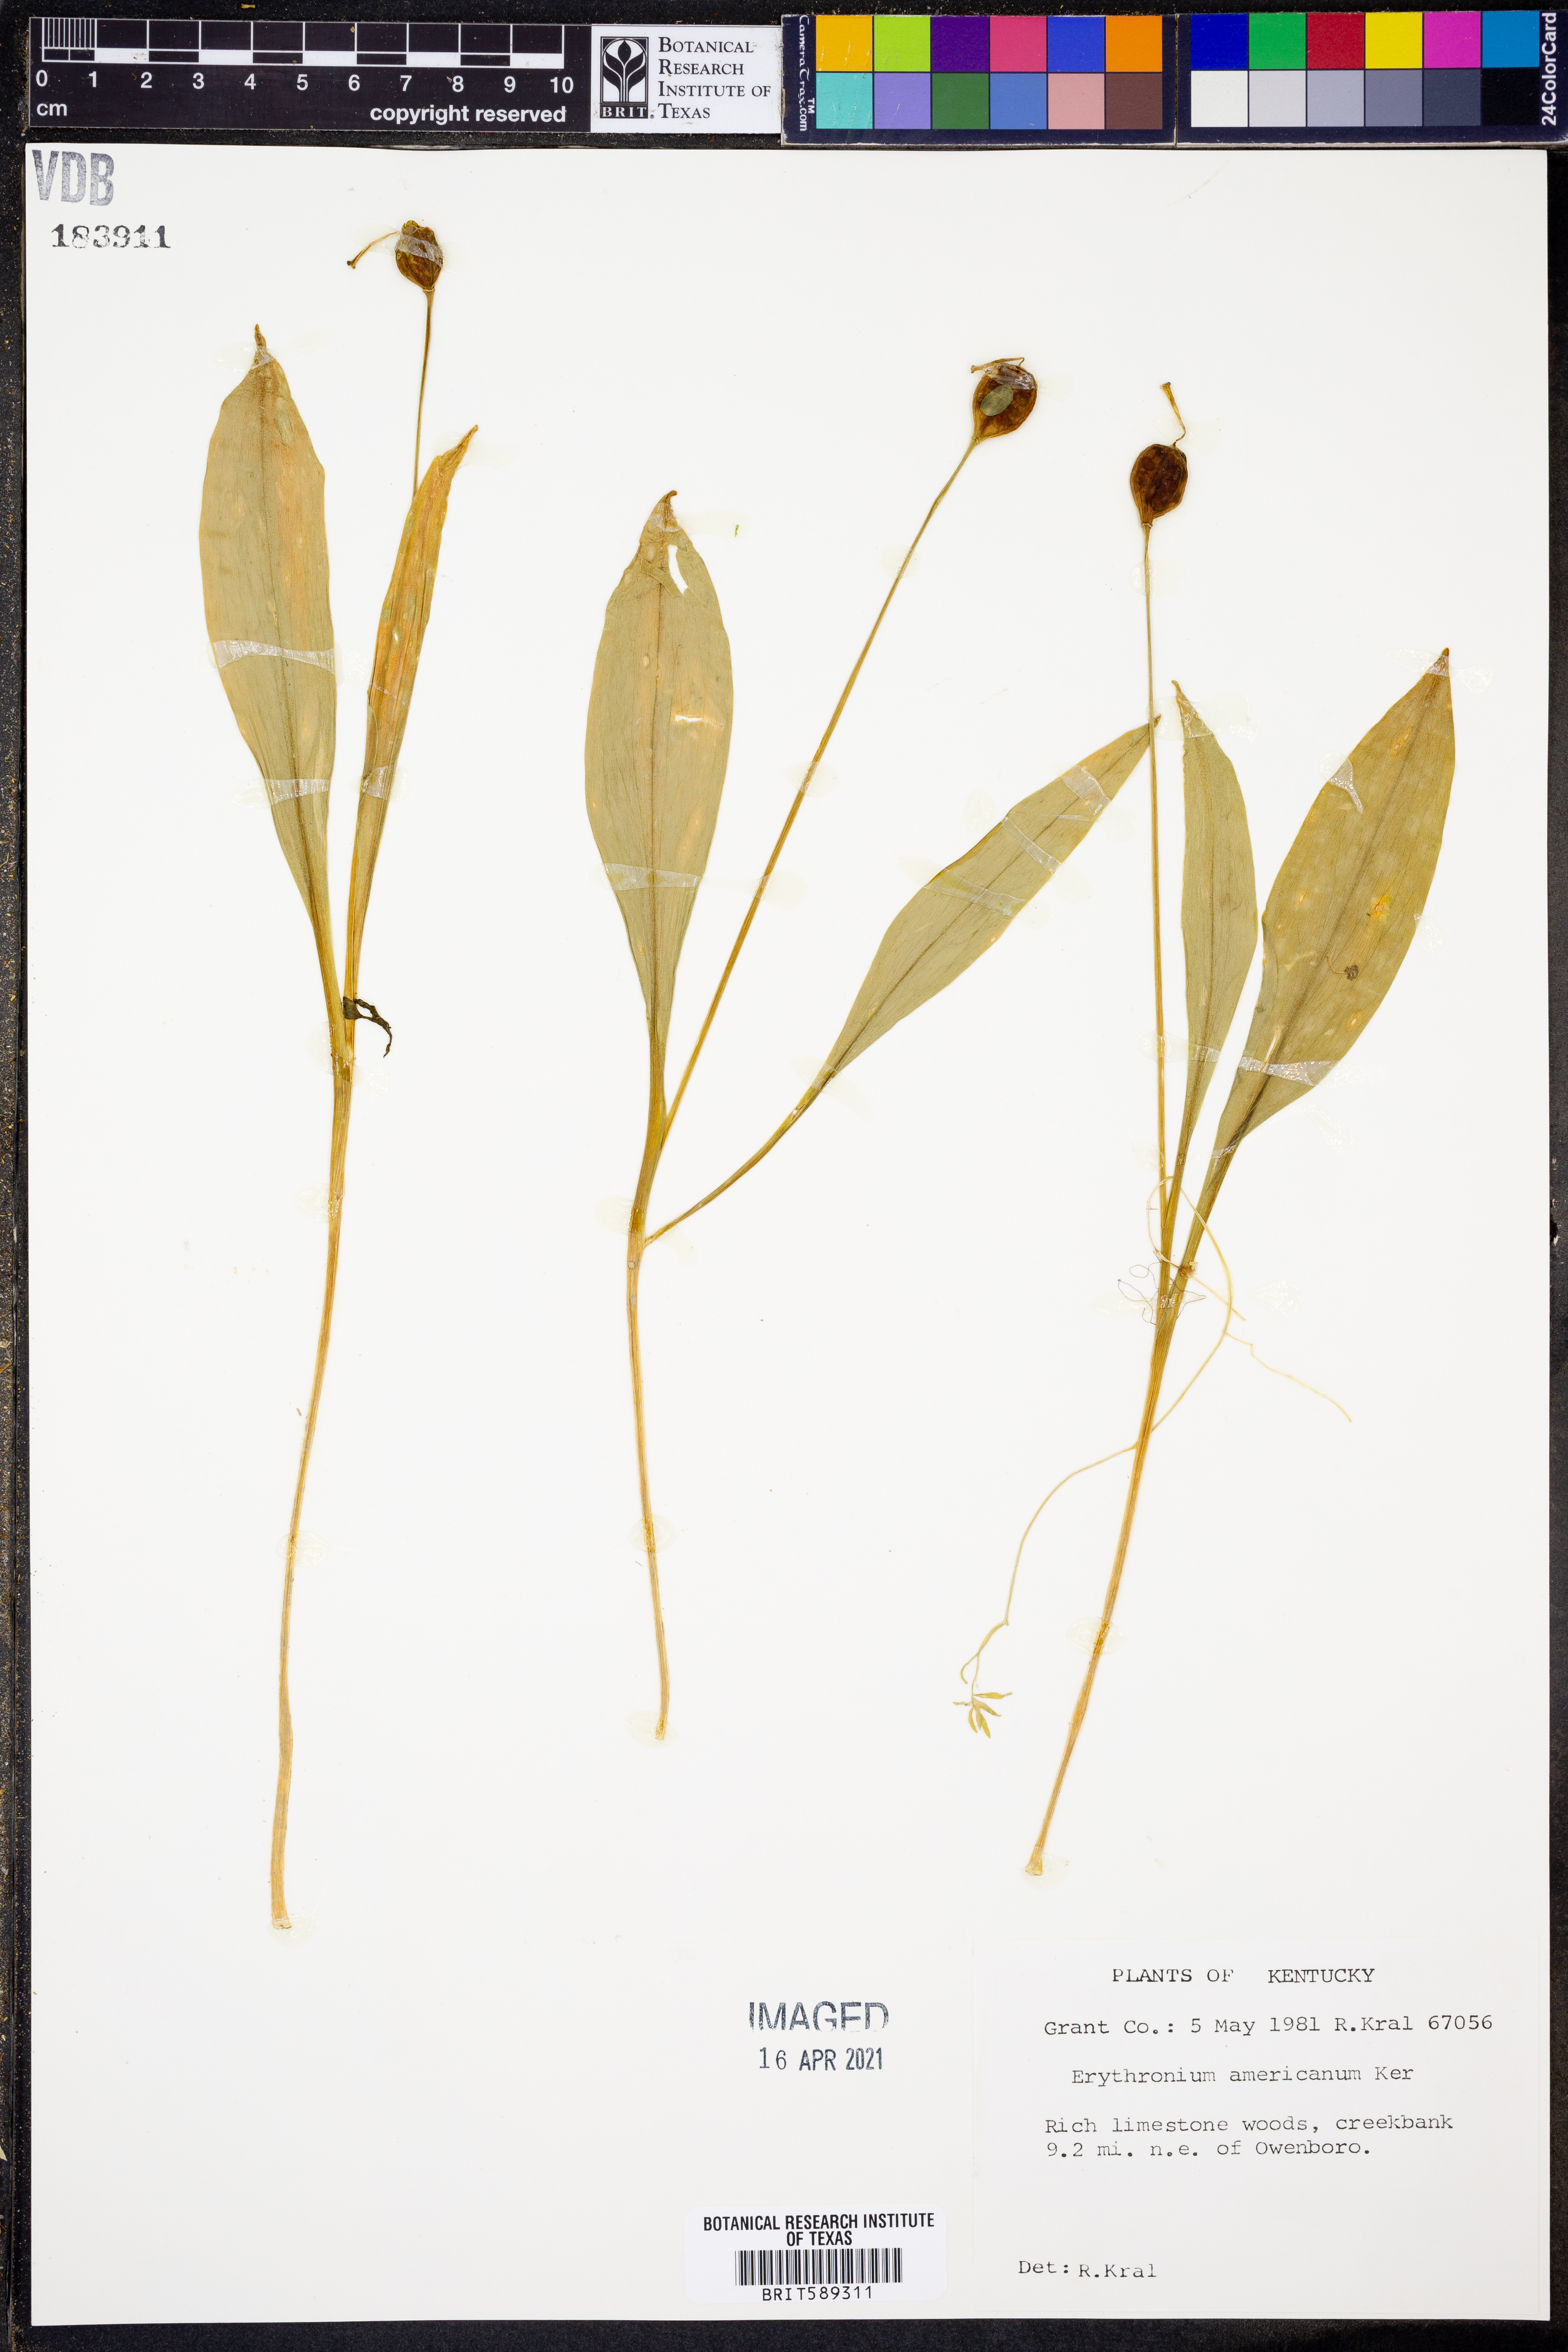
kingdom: Plantae
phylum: Tracheophyta
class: Liliopsida
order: Liliales
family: Liliaceae
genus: Erythronium
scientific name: Erythronium americanum
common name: Yellow adder's-tongue
